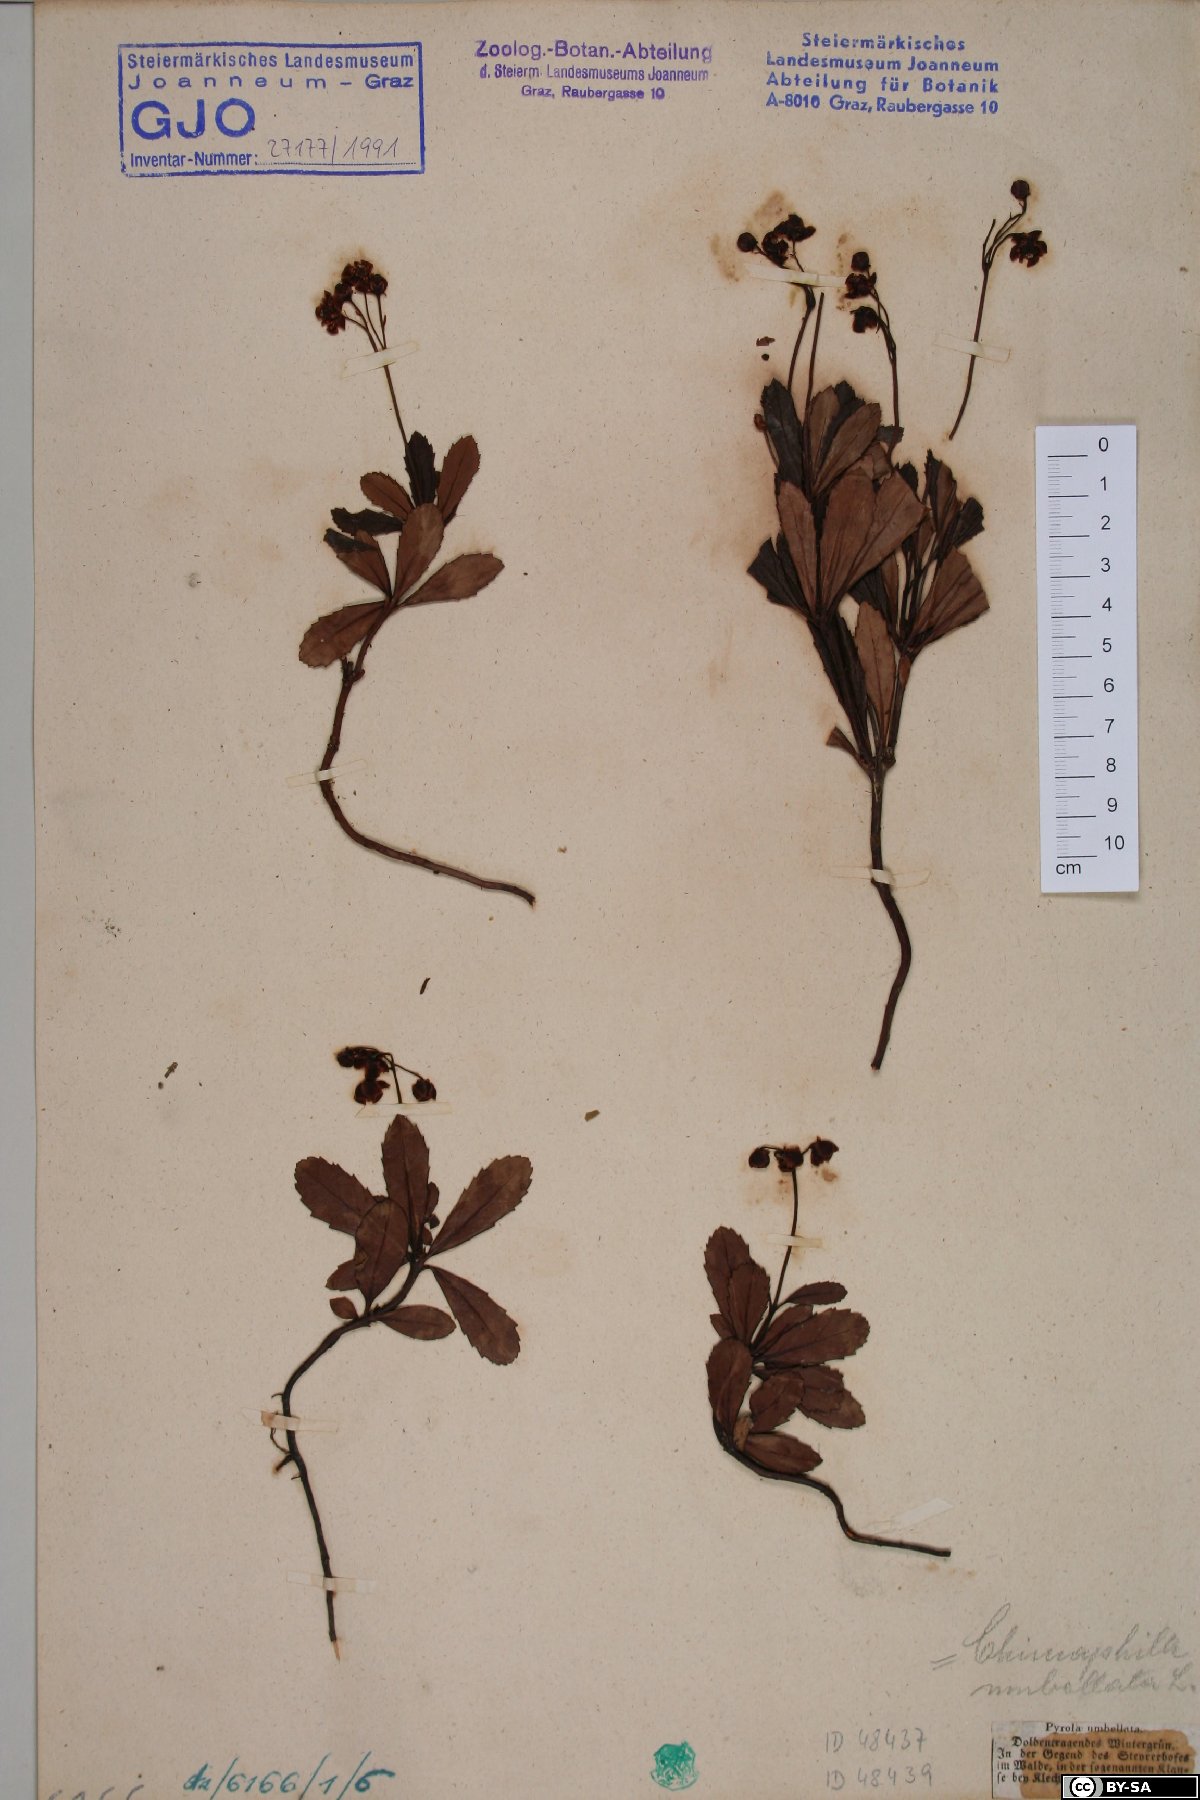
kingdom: Plantae
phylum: Tracheophyta
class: Magnoliopsida
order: Ericales
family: Ericaceae
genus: Chimaphila
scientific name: Chimaphila umbellata
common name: Pipsissewa
